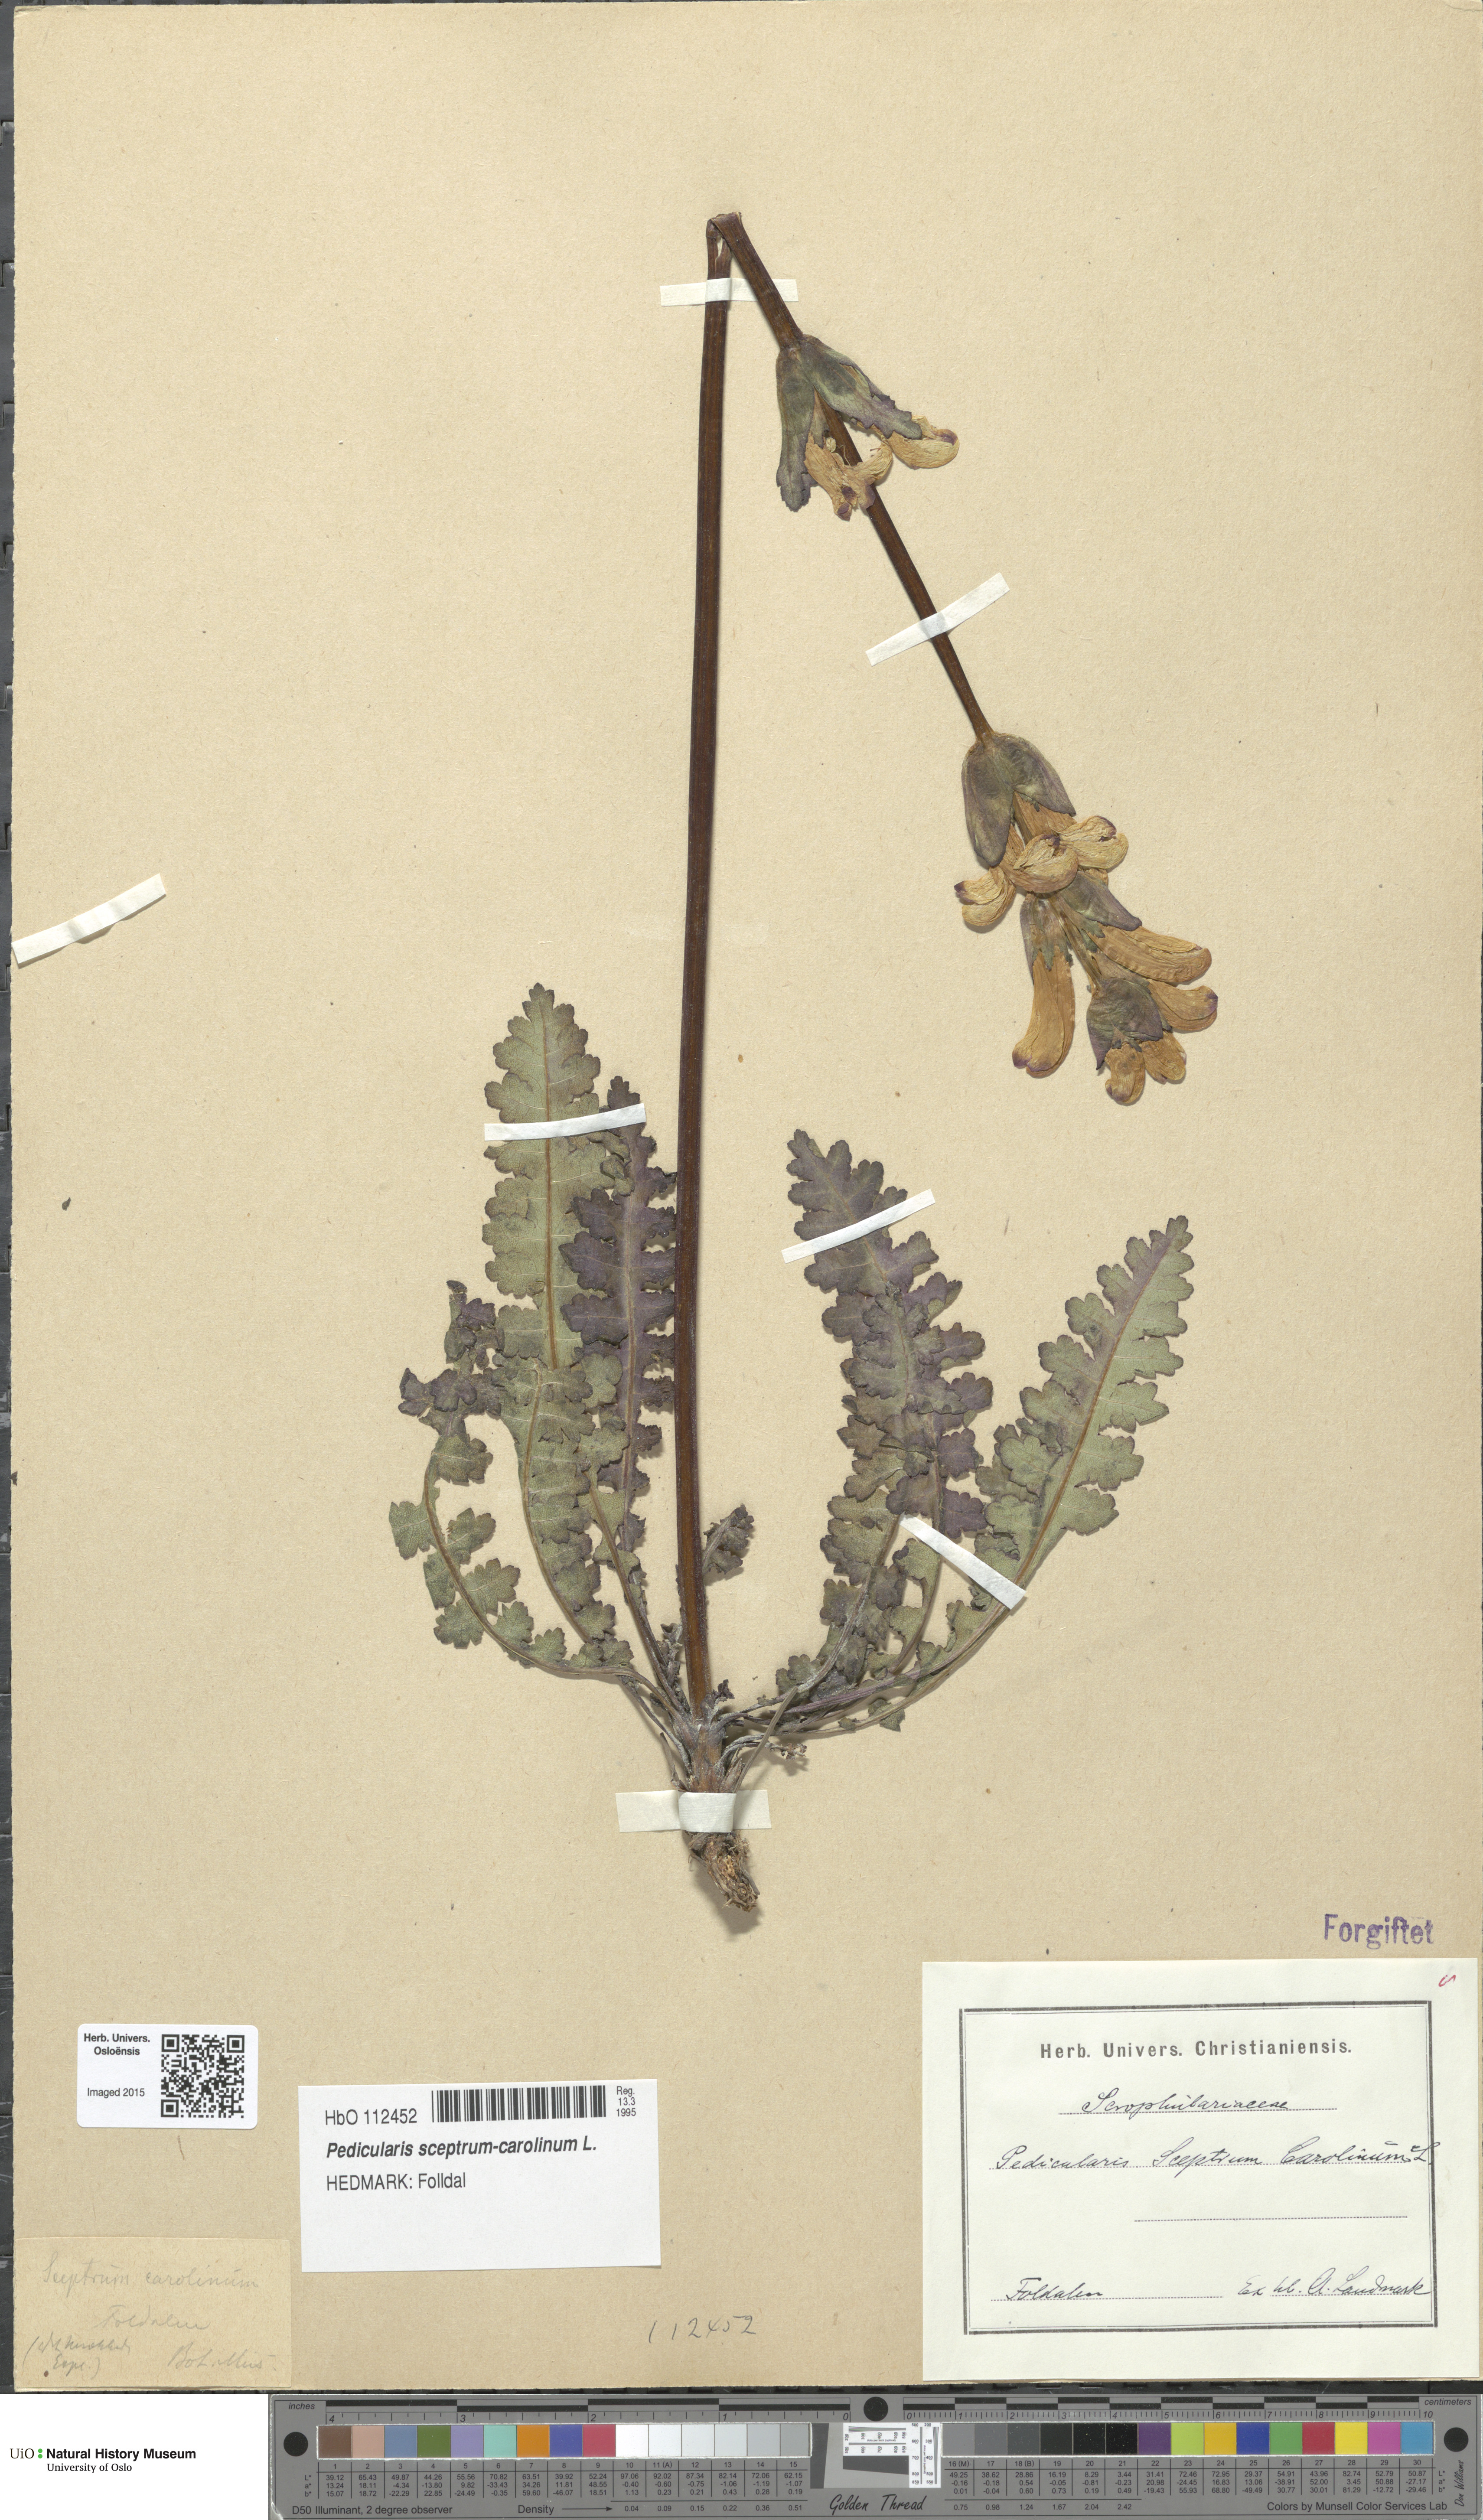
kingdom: Plantae
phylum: Tracheophyta
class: Magnoliopsida
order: Lamiales
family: Orobanchaceae
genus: Pedicularis
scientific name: Pedicularis sceptrum-carolinum
